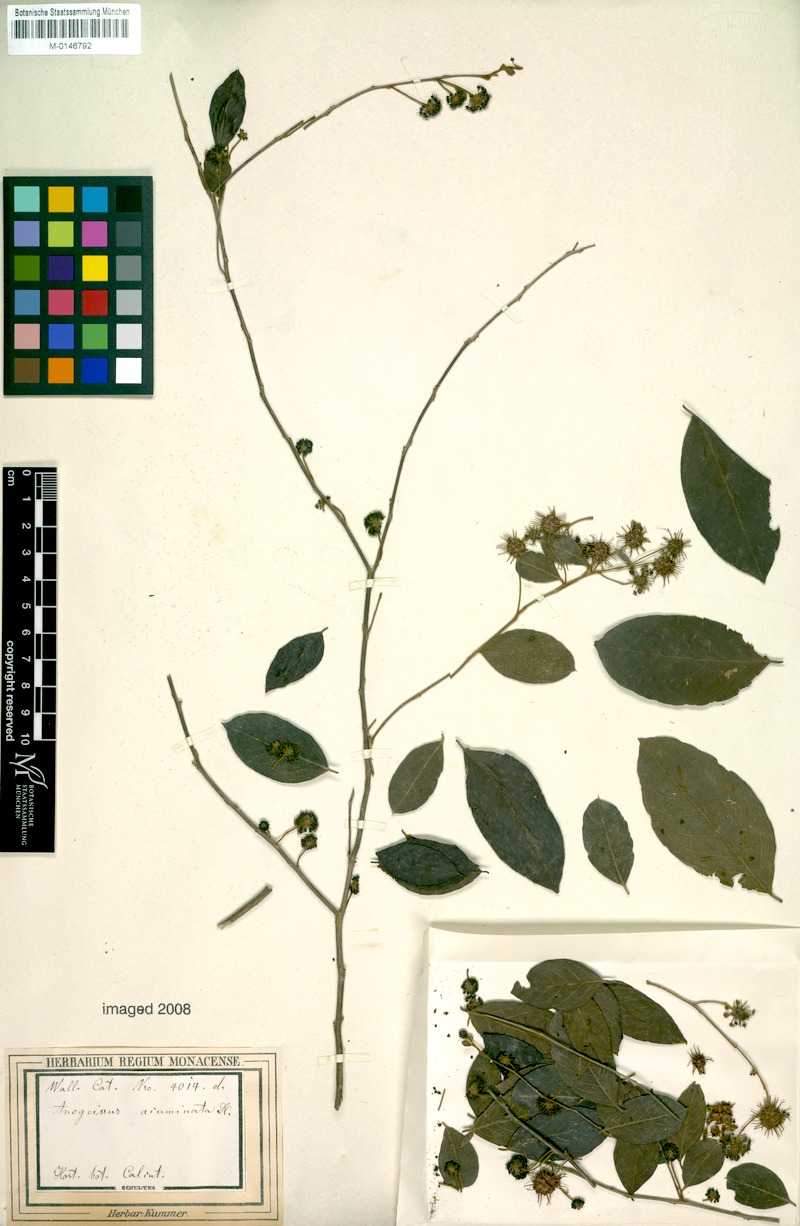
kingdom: Plantae
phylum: Tracheophyta
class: Magnoliopsida
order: Myrtales
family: Combretaceae
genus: Terminalia
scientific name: Terminalia phillyreifolia
